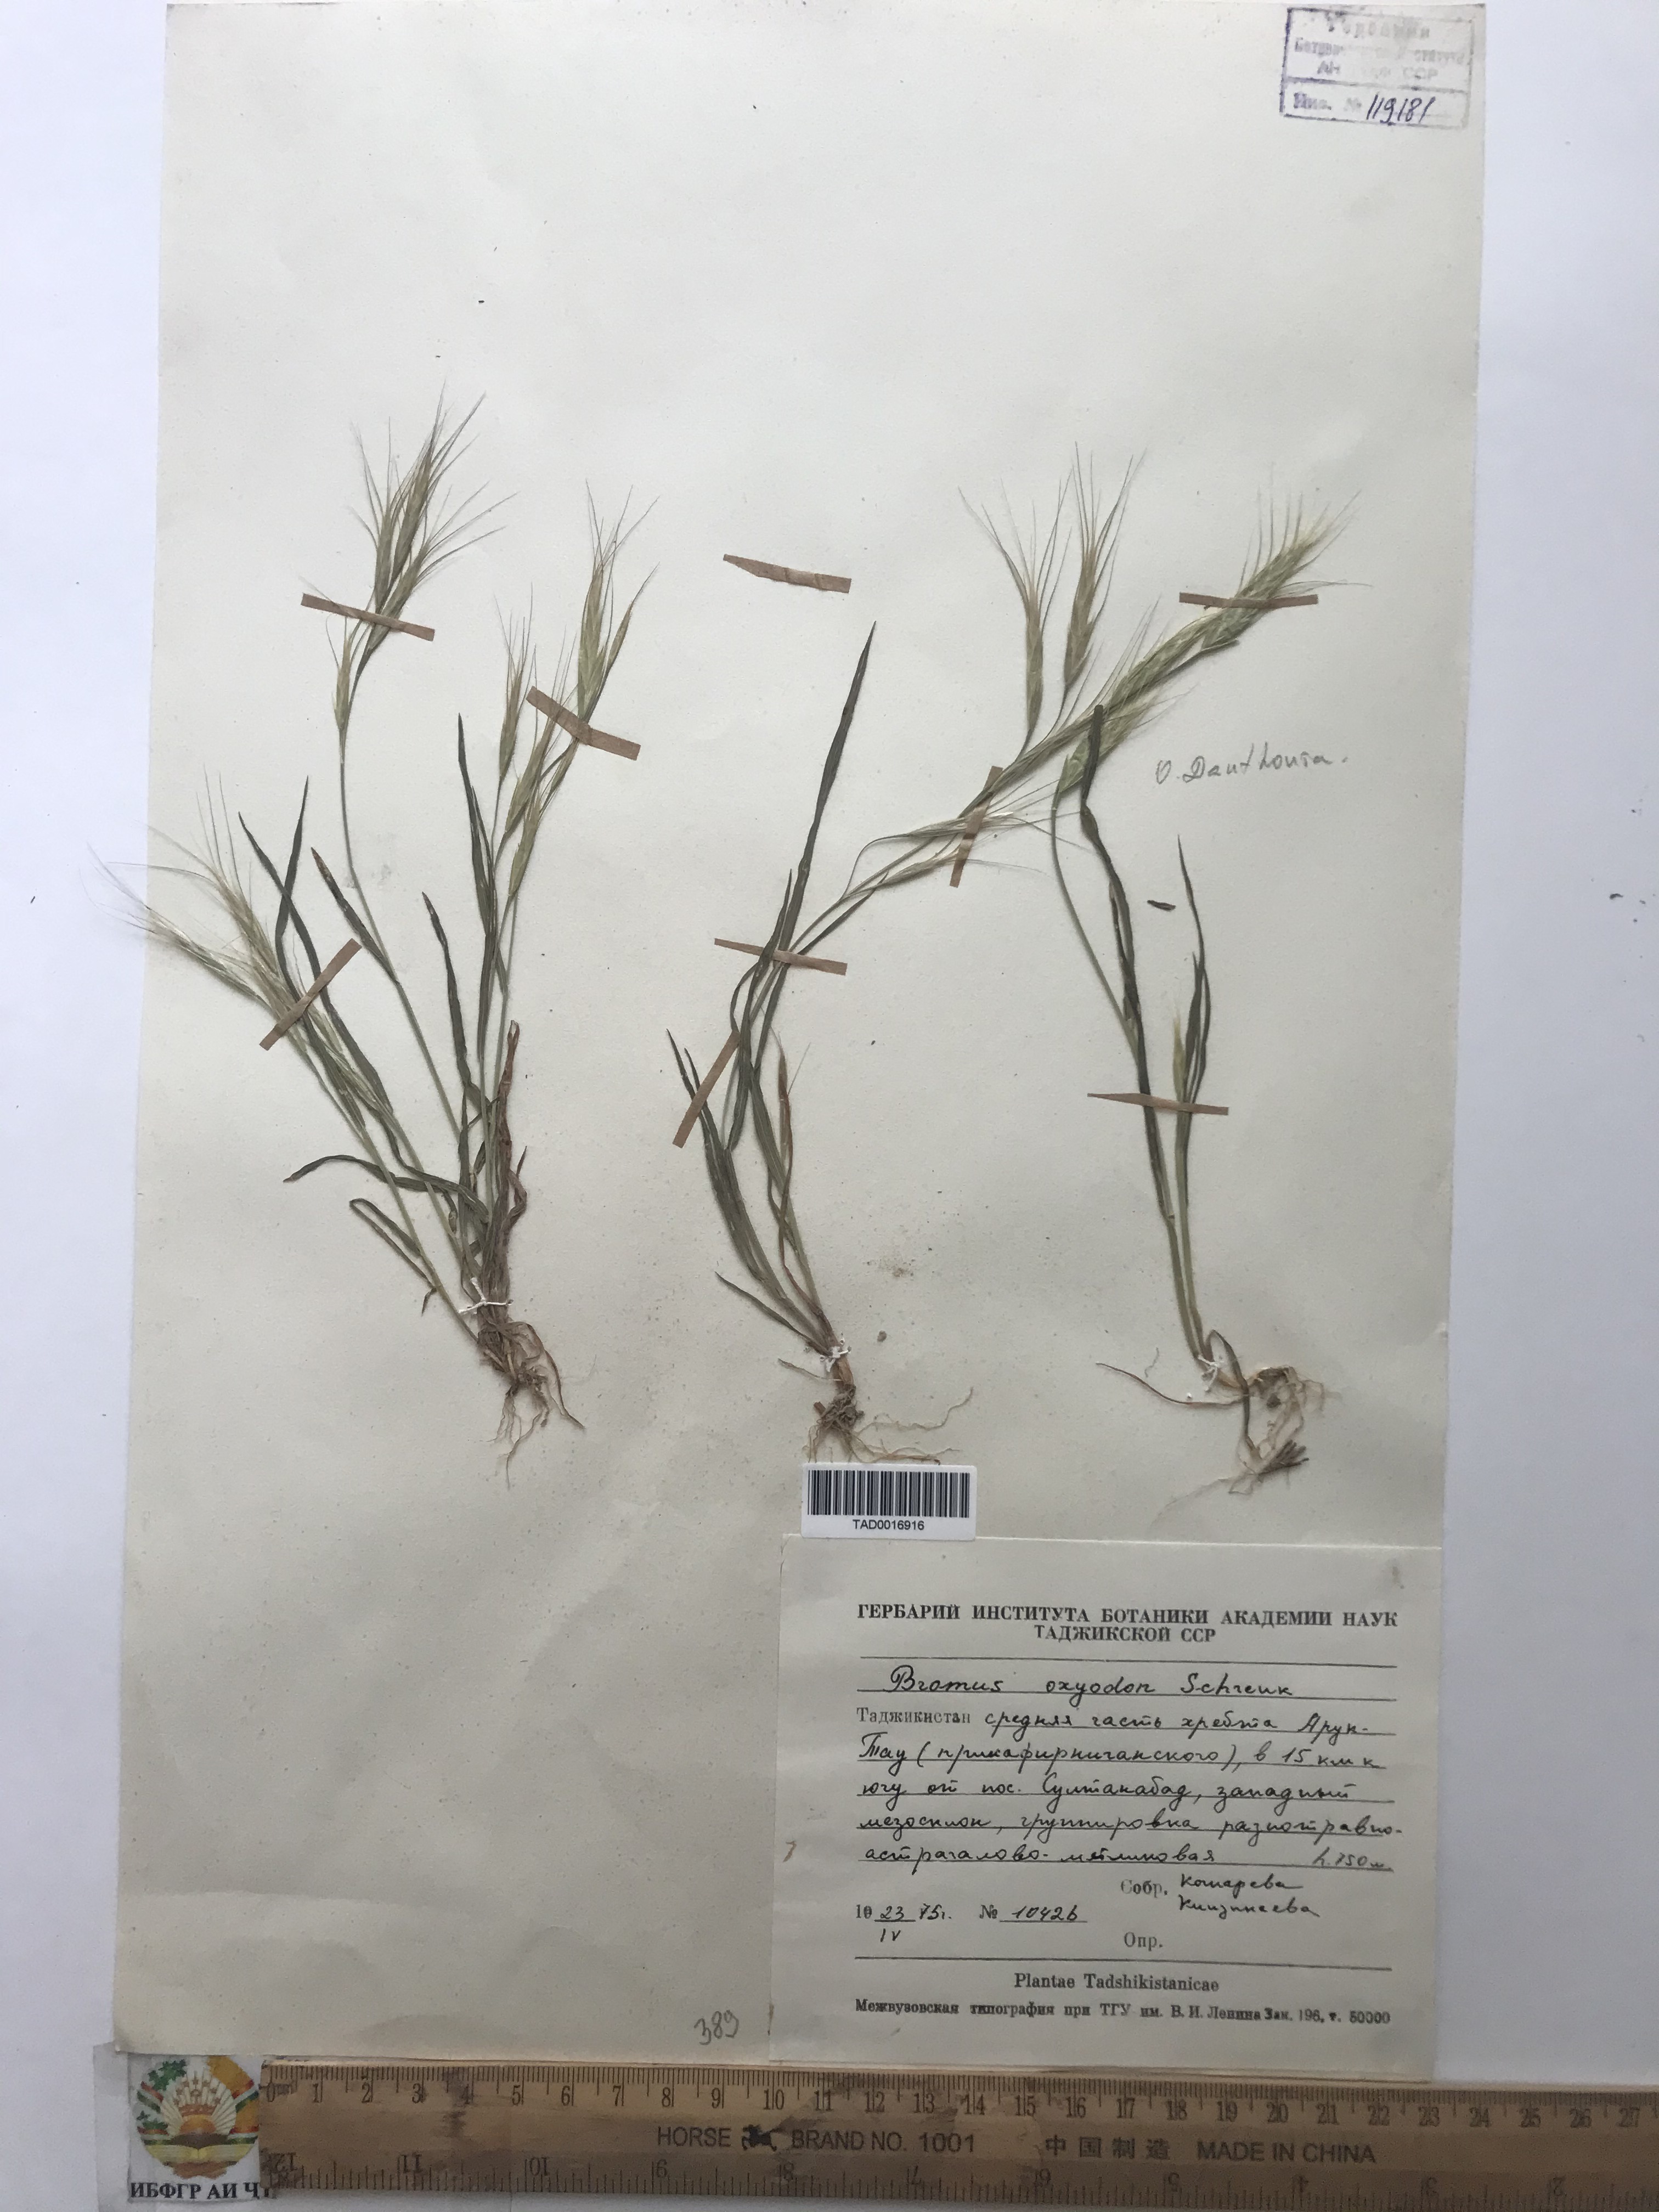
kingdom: Plantae
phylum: Tracheophyta
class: Liliopsida
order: Poales
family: Poaceae
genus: Bromus
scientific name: Bromus oxyodon
